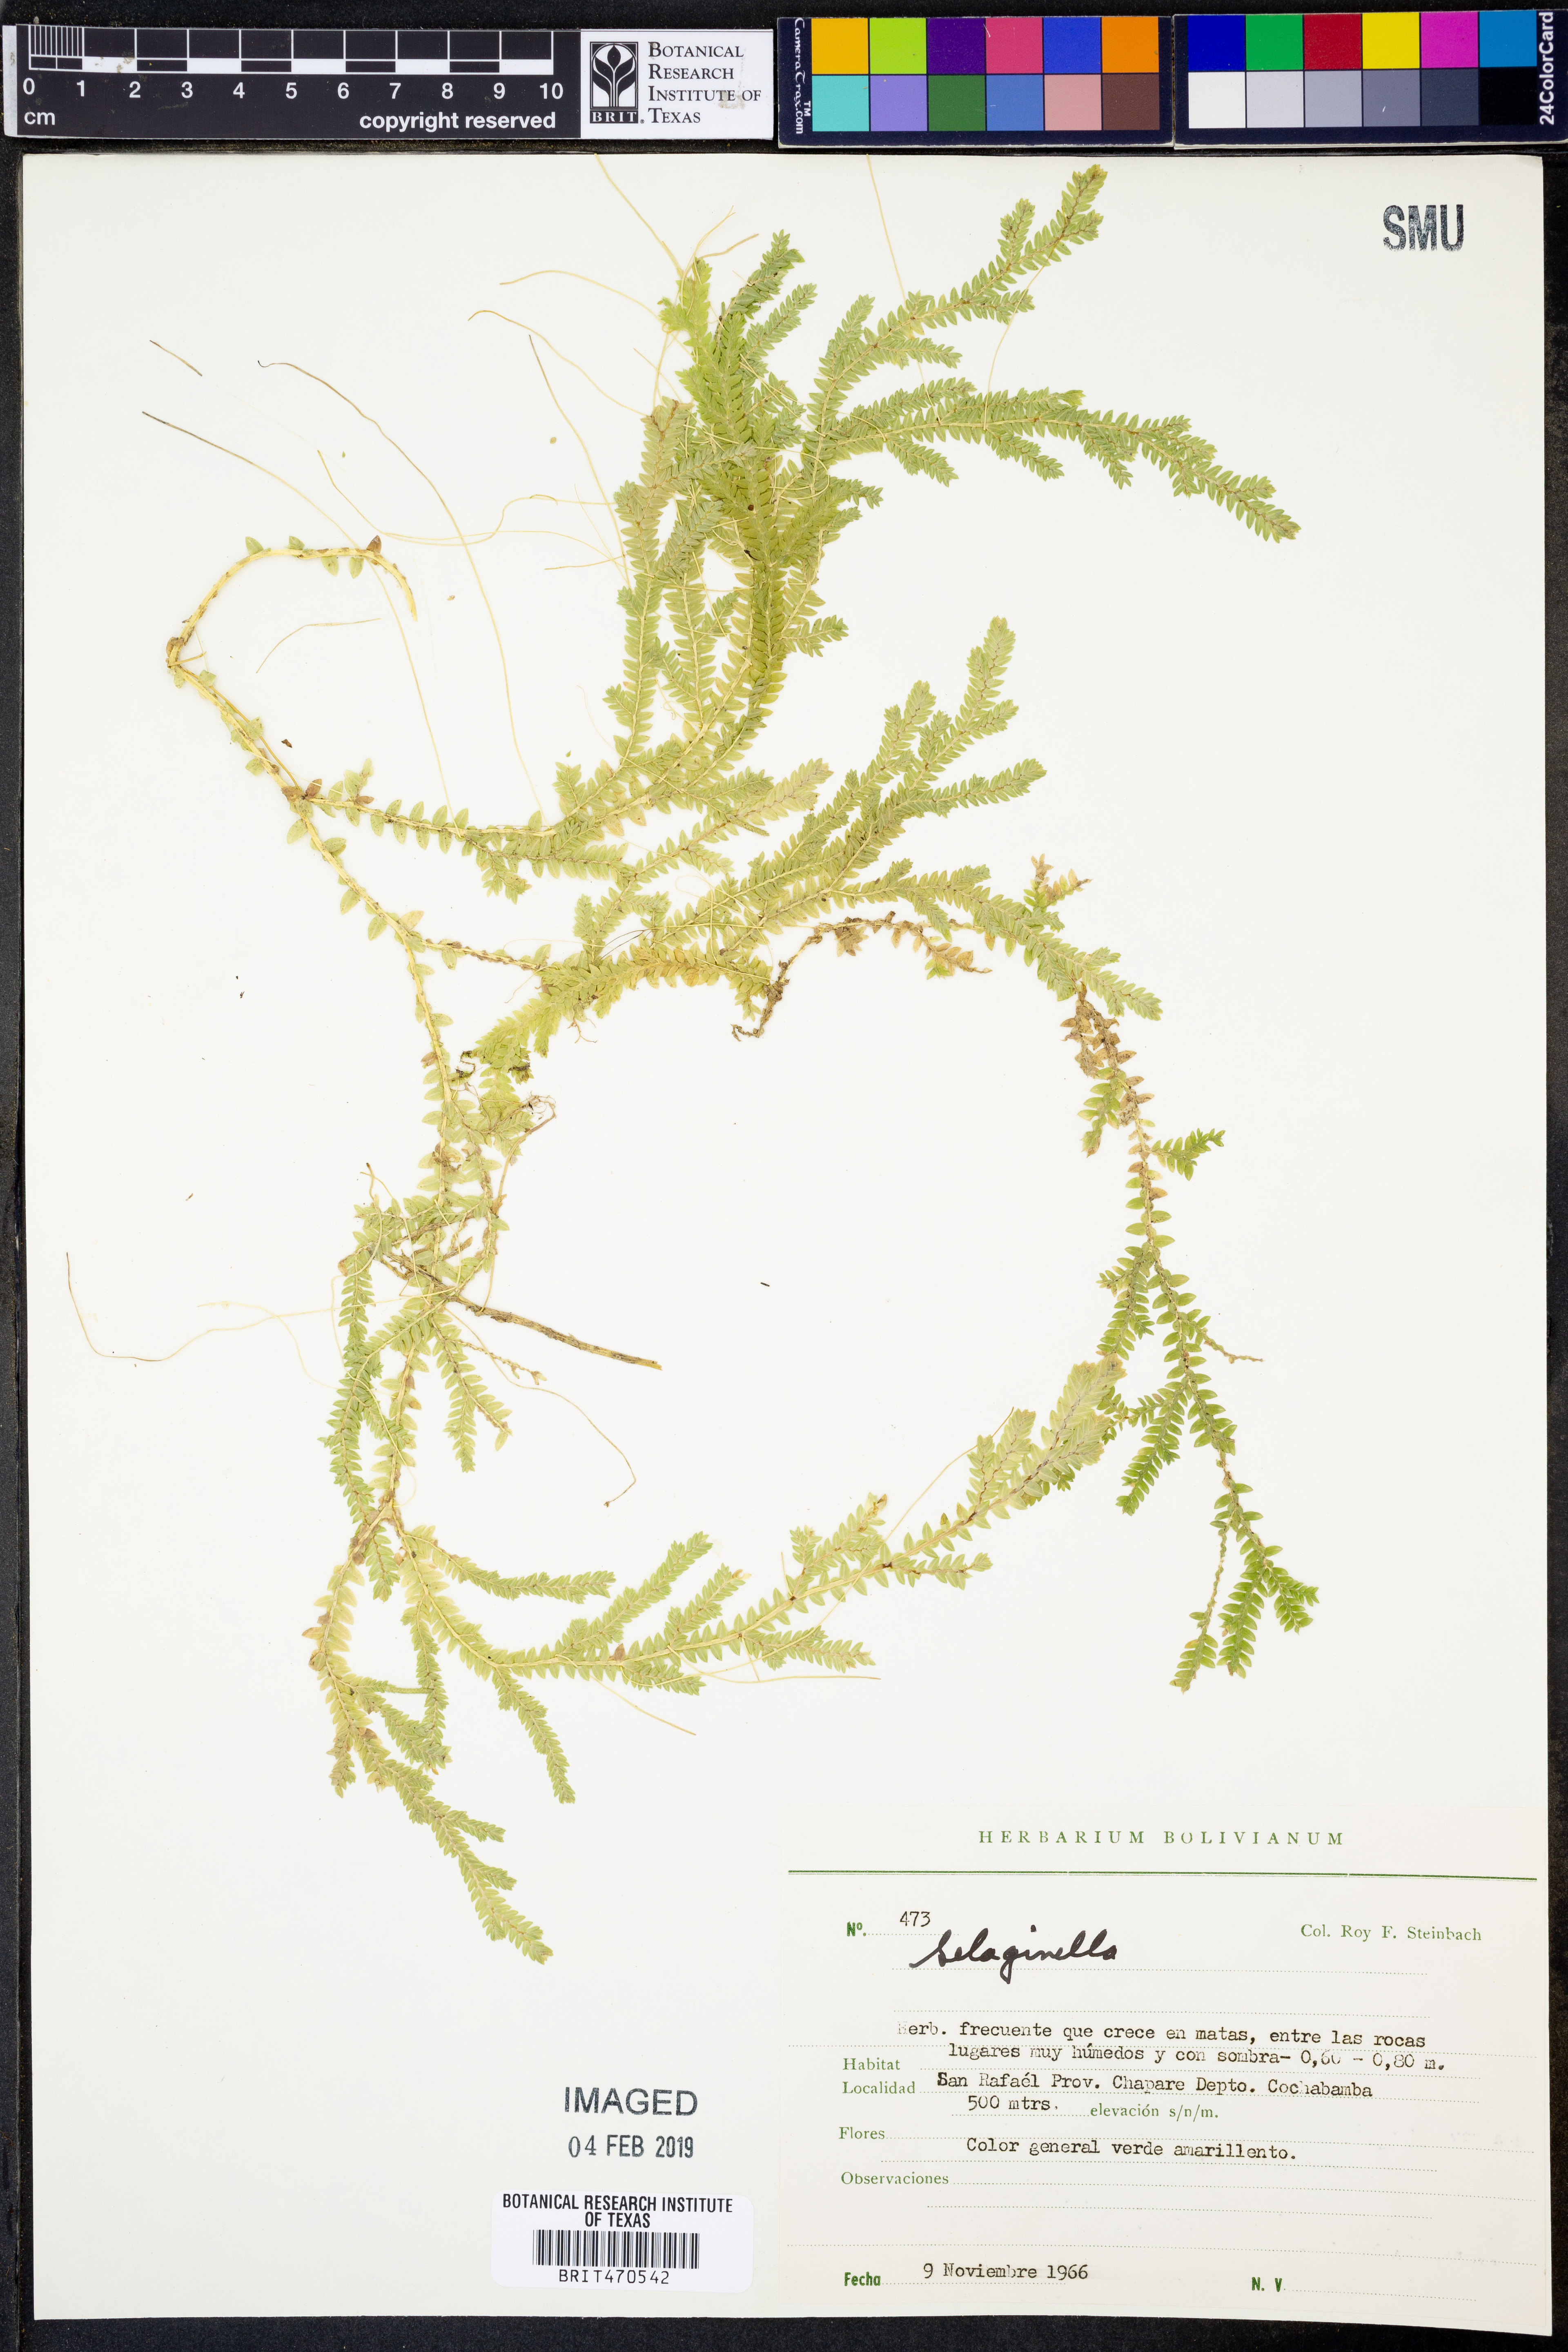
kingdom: Plantae
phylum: Tracheophyta
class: Lycopodiopsida
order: Selaginellales
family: Selaginellaceae
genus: Selaginella
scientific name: Selaginella
